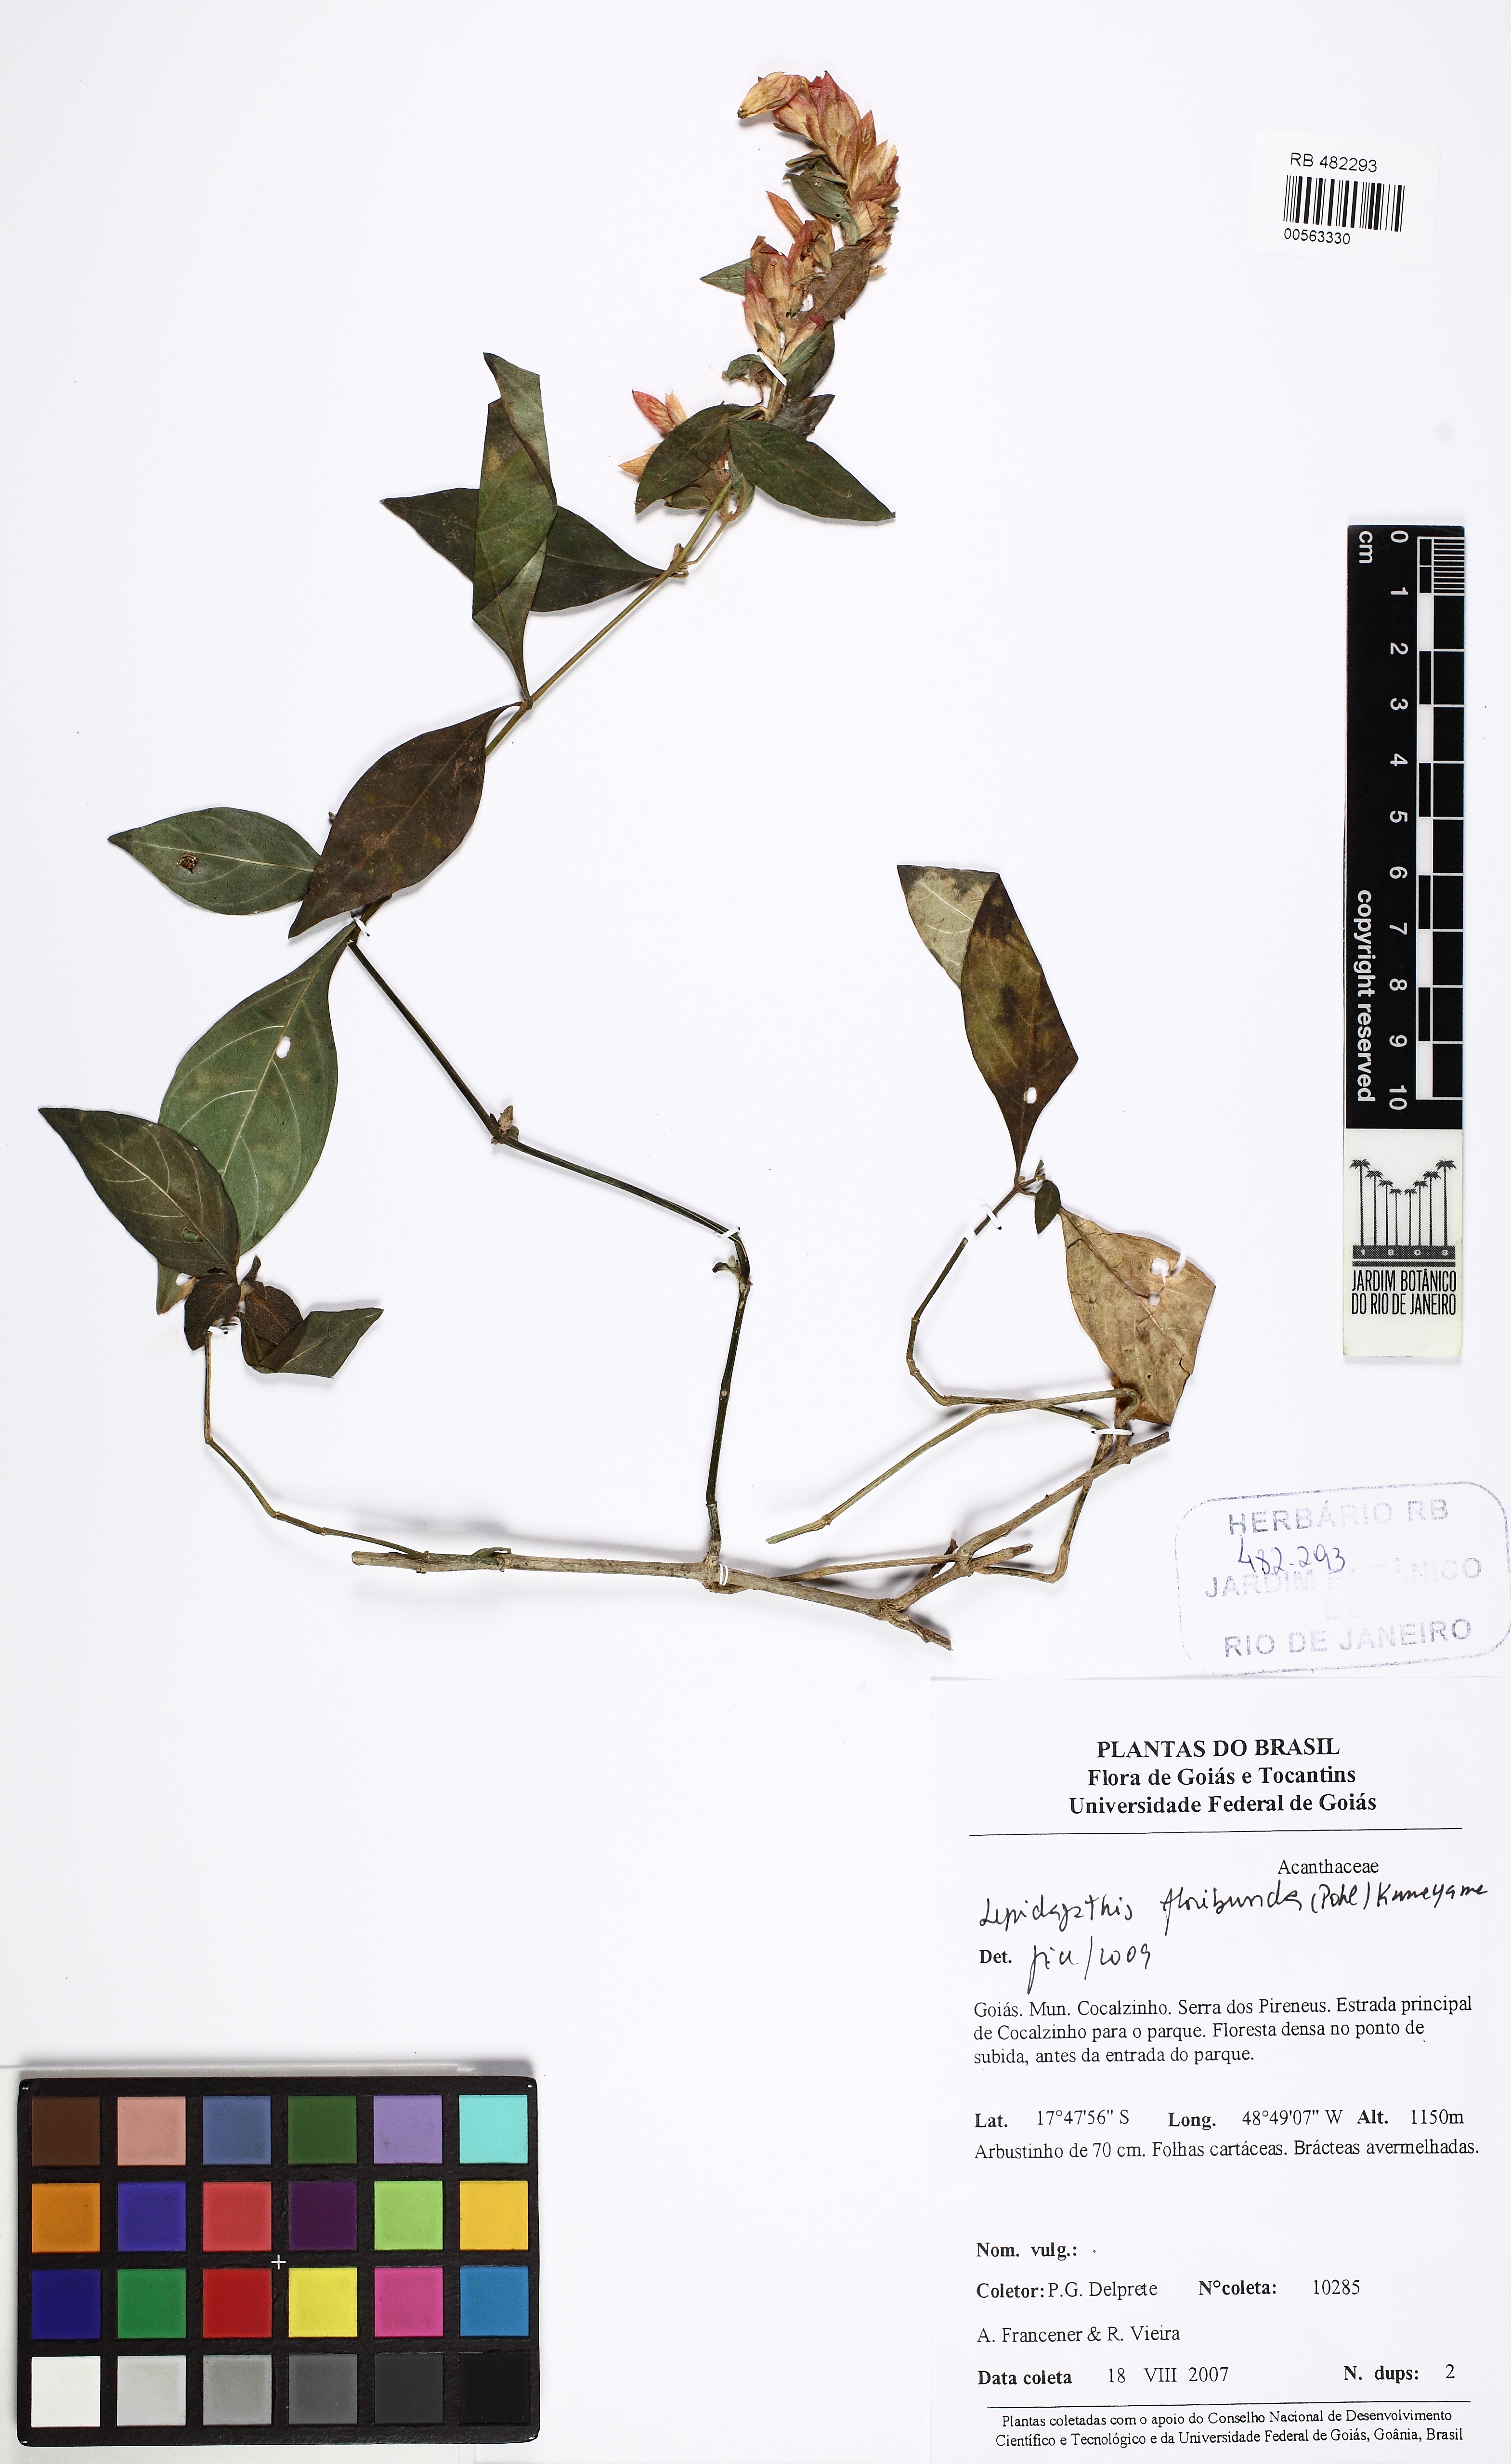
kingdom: Plantae
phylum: Tracheophyta
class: Magnoliopsida
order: Lamiales
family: Acanthaceae
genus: Lepidagathis
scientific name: Lepidagathis floribunda
